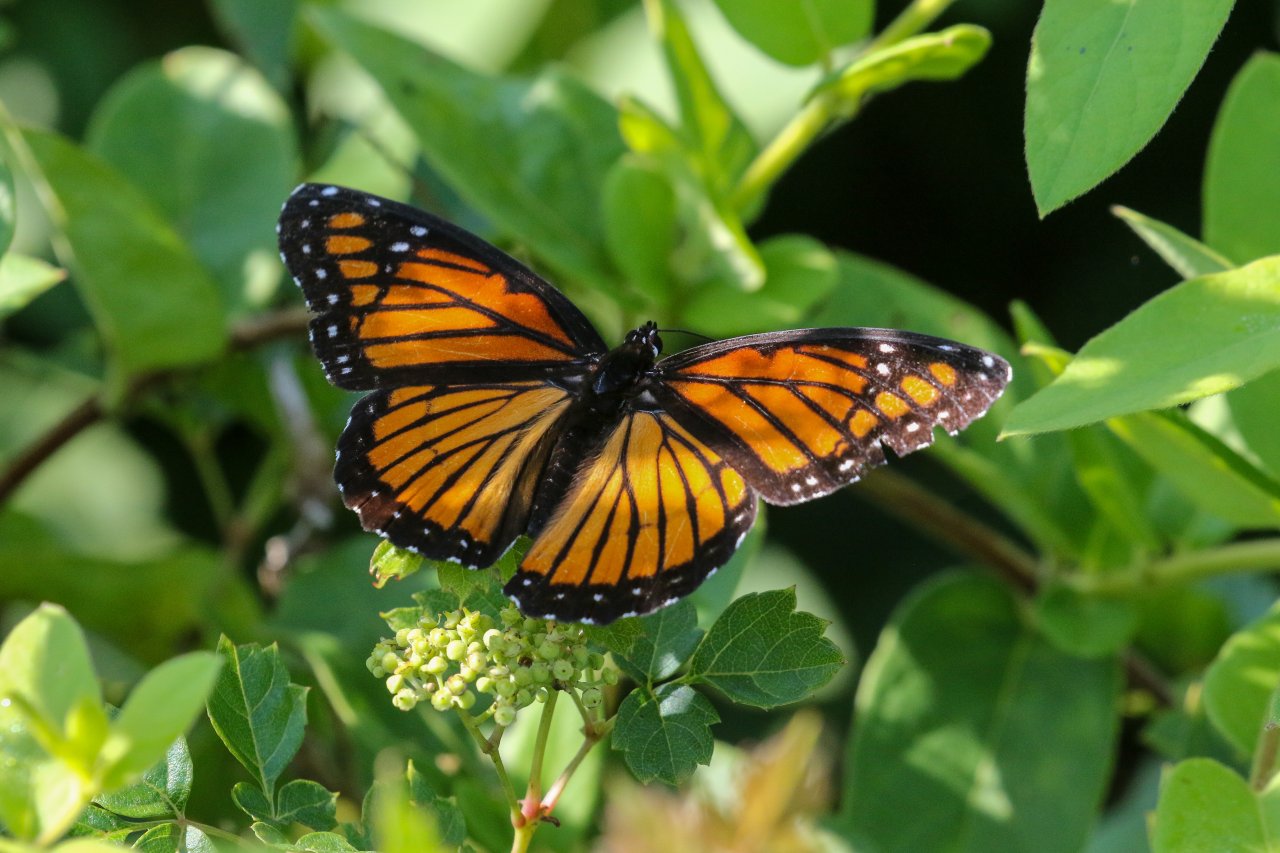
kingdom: Animalia
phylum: Arthropoda
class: Insecta
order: Lepidoptera
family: Nymphalidae
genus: Limenitis
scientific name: Limenitis archippus
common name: Viceroy
